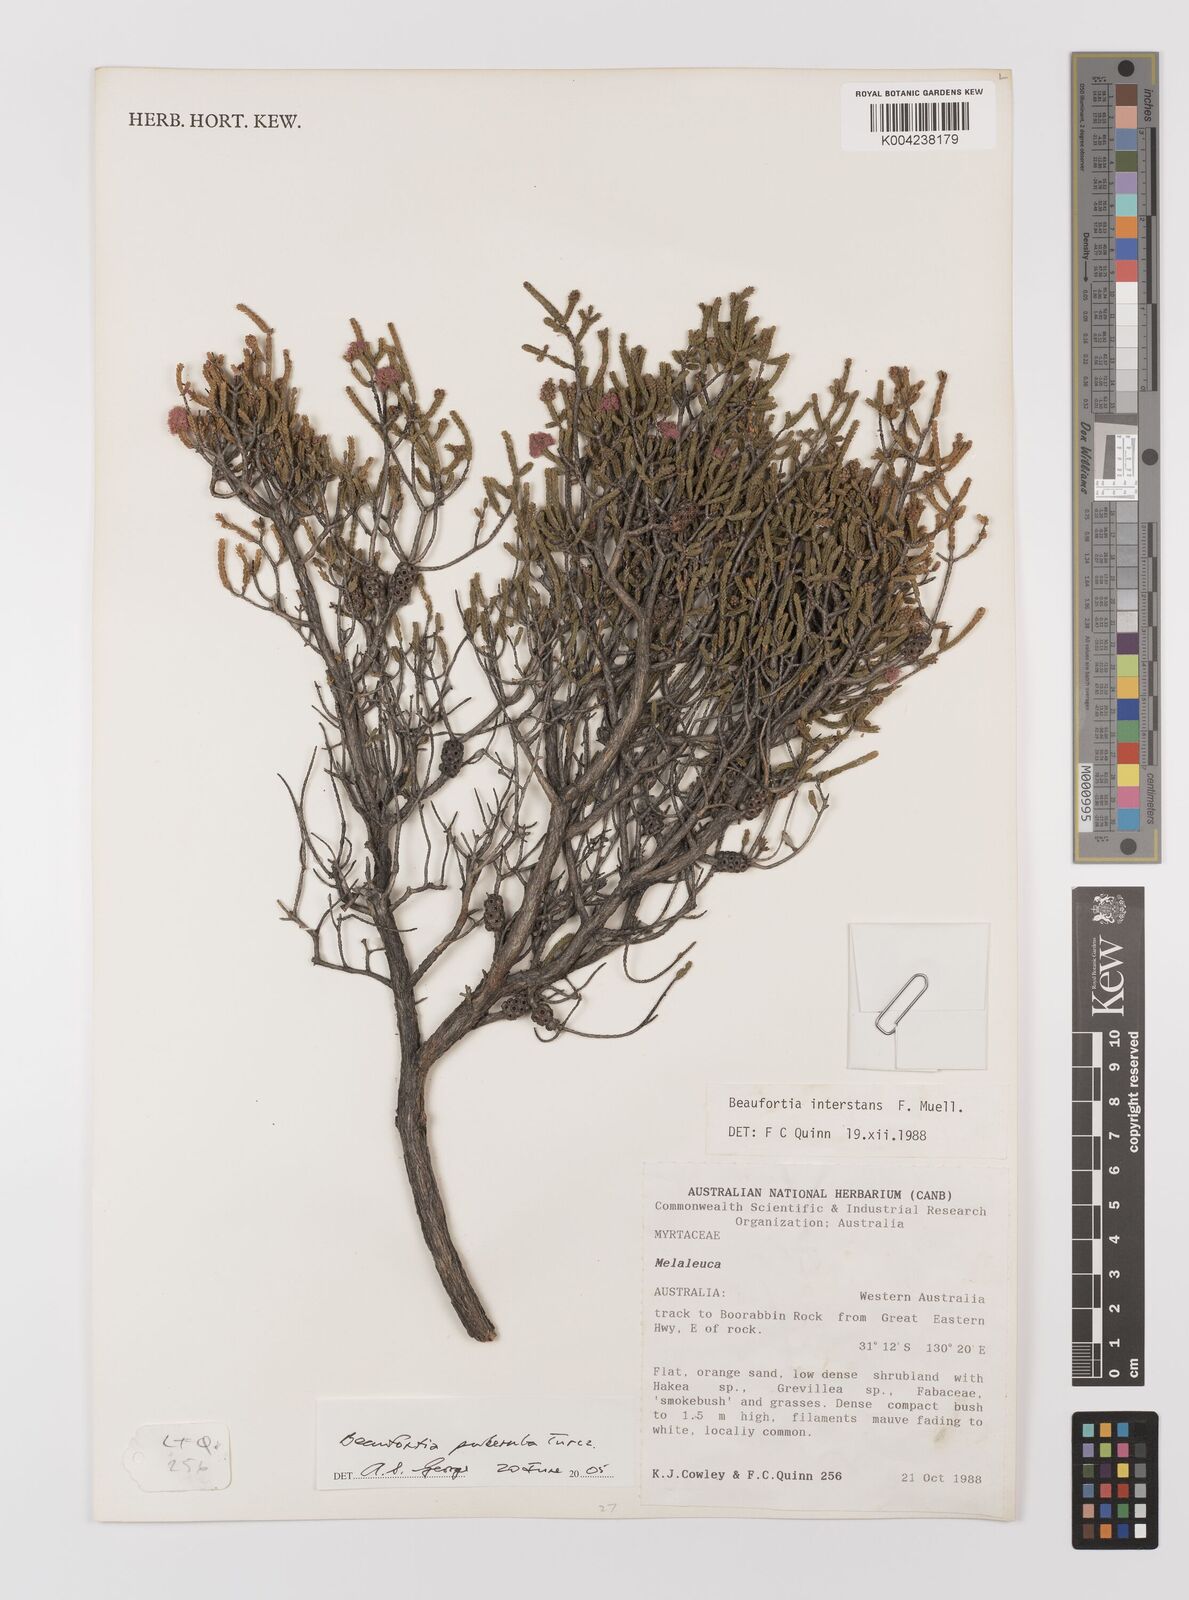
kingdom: Plantae
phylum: Tracheophyta
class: Magnoliopsida
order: Myrtales
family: Myrtaceae
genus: Melaleuca
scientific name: Melaleuca micrantha
